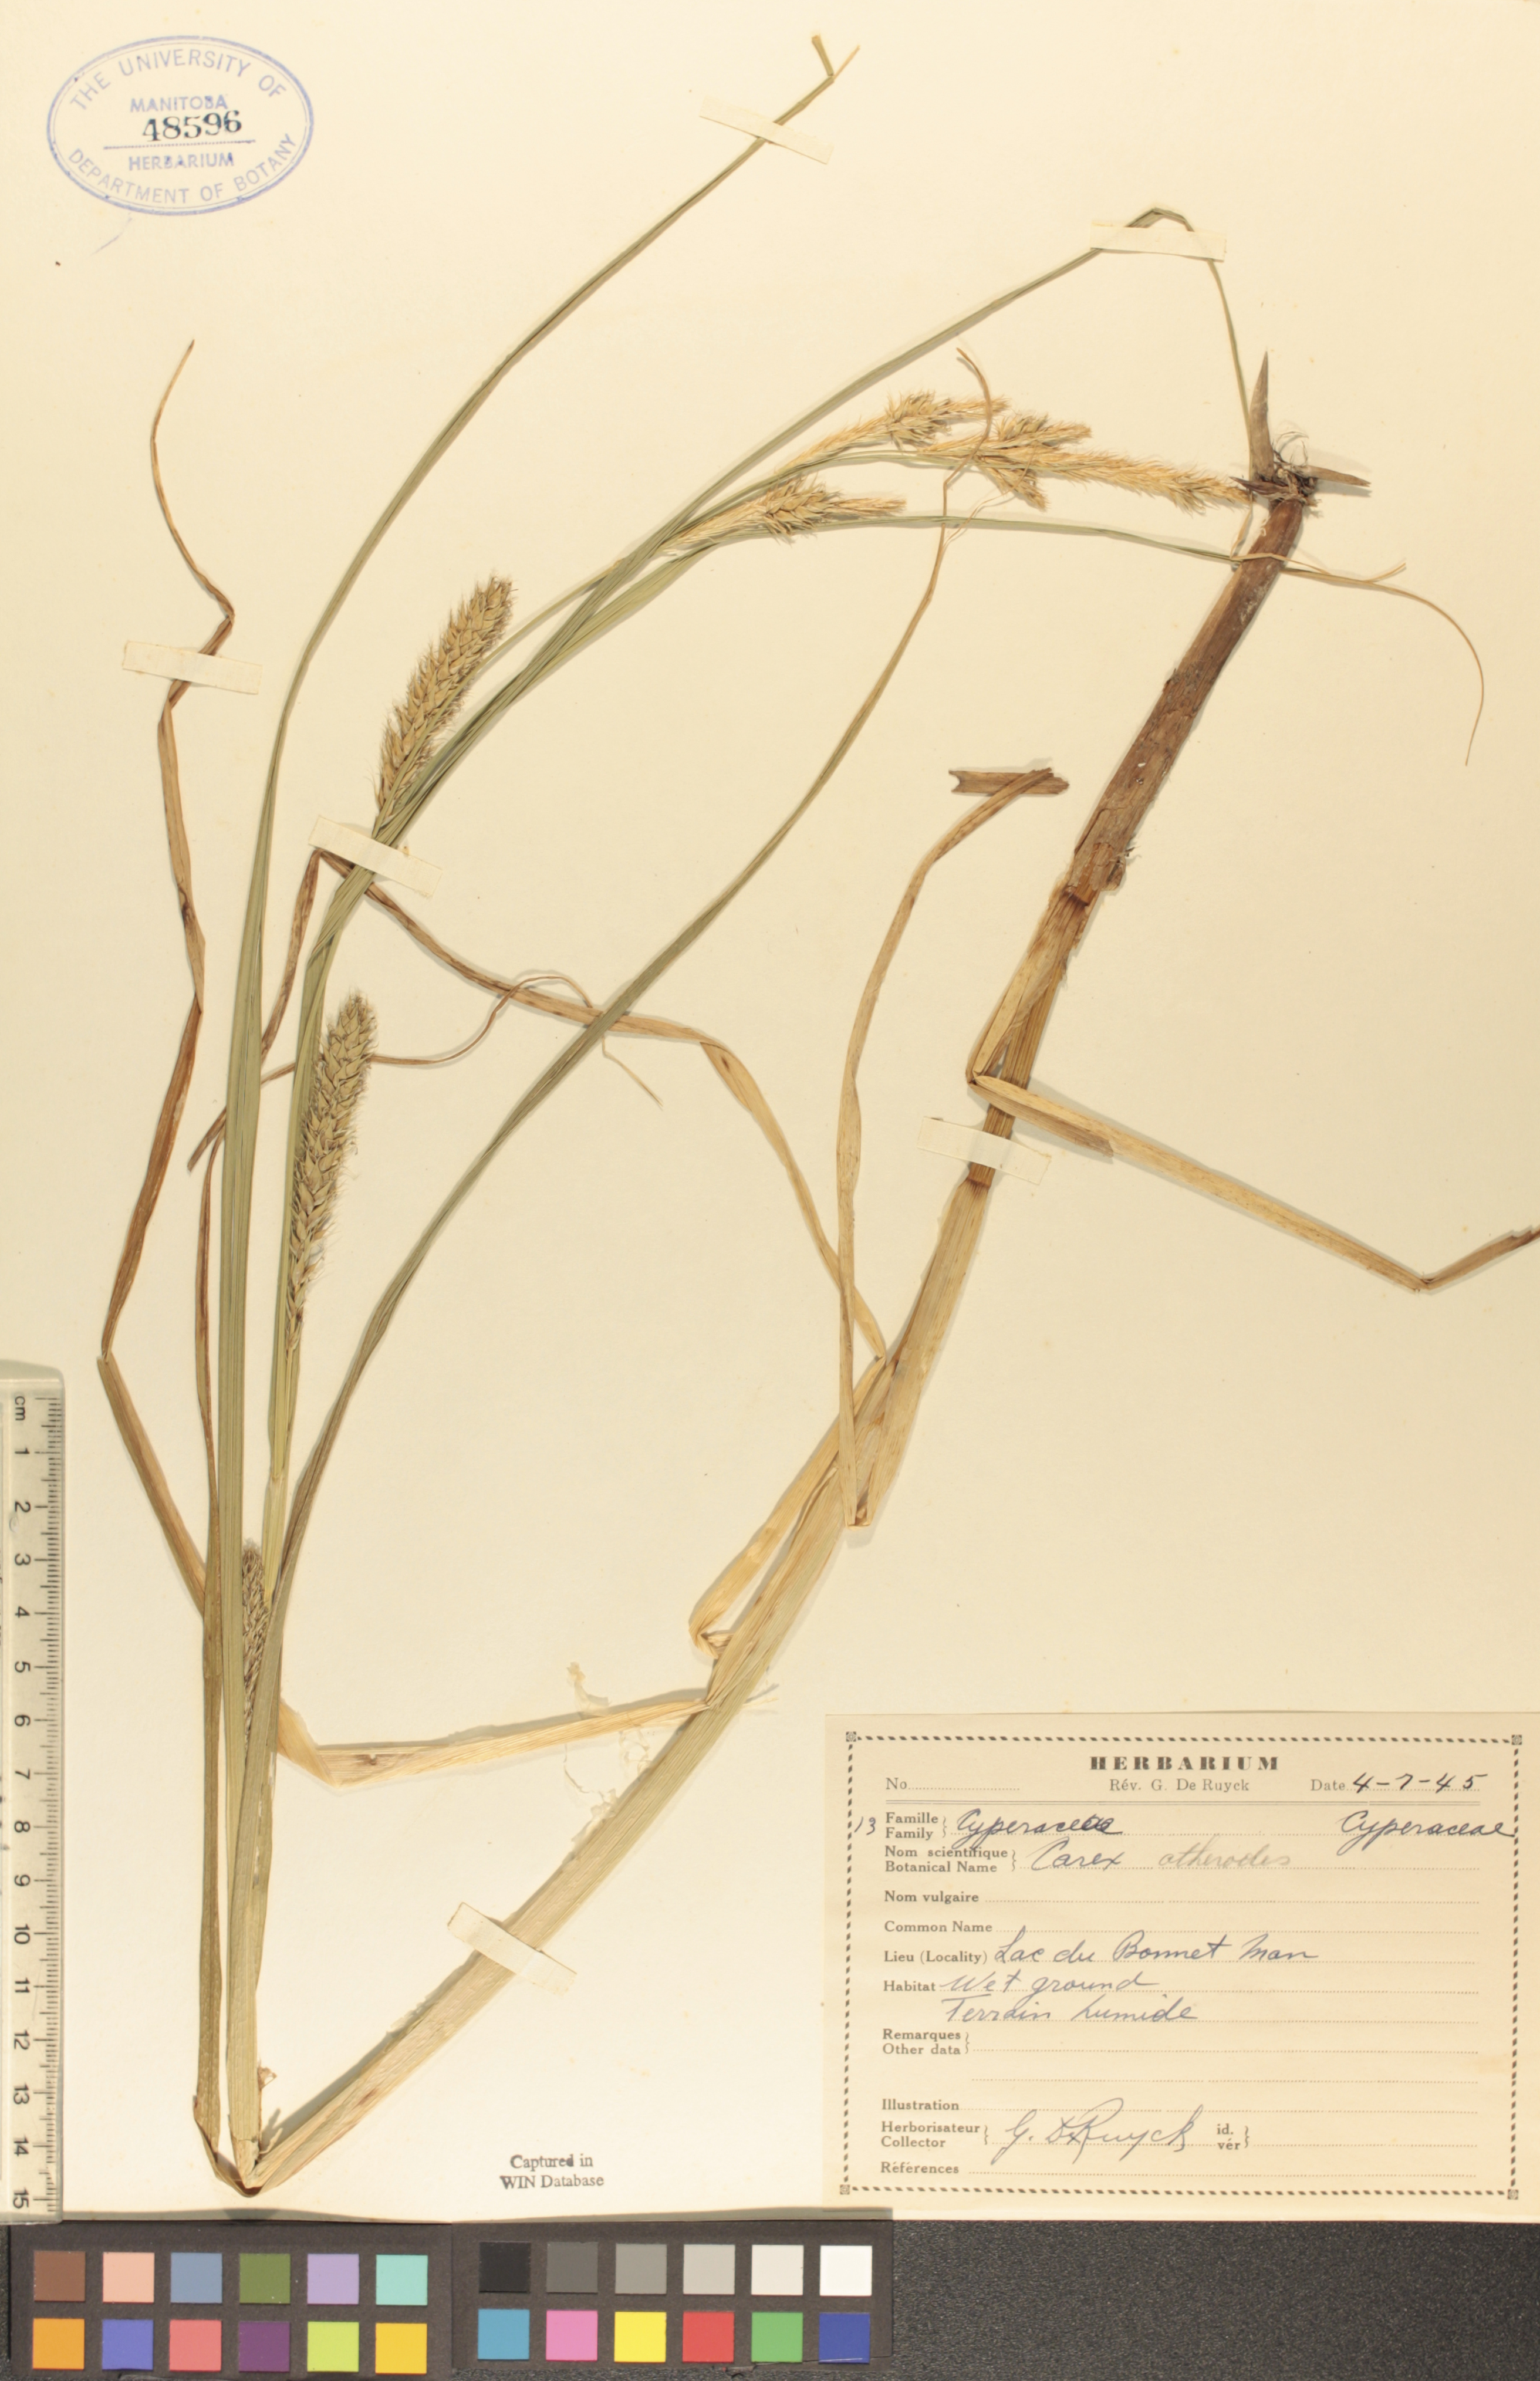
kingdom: Plantae
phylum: Tracheophyta
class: Liliopsida
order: Poales
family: Cyperaceae
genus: Carex
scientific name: Carex atherodes
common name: Wheat sedge
